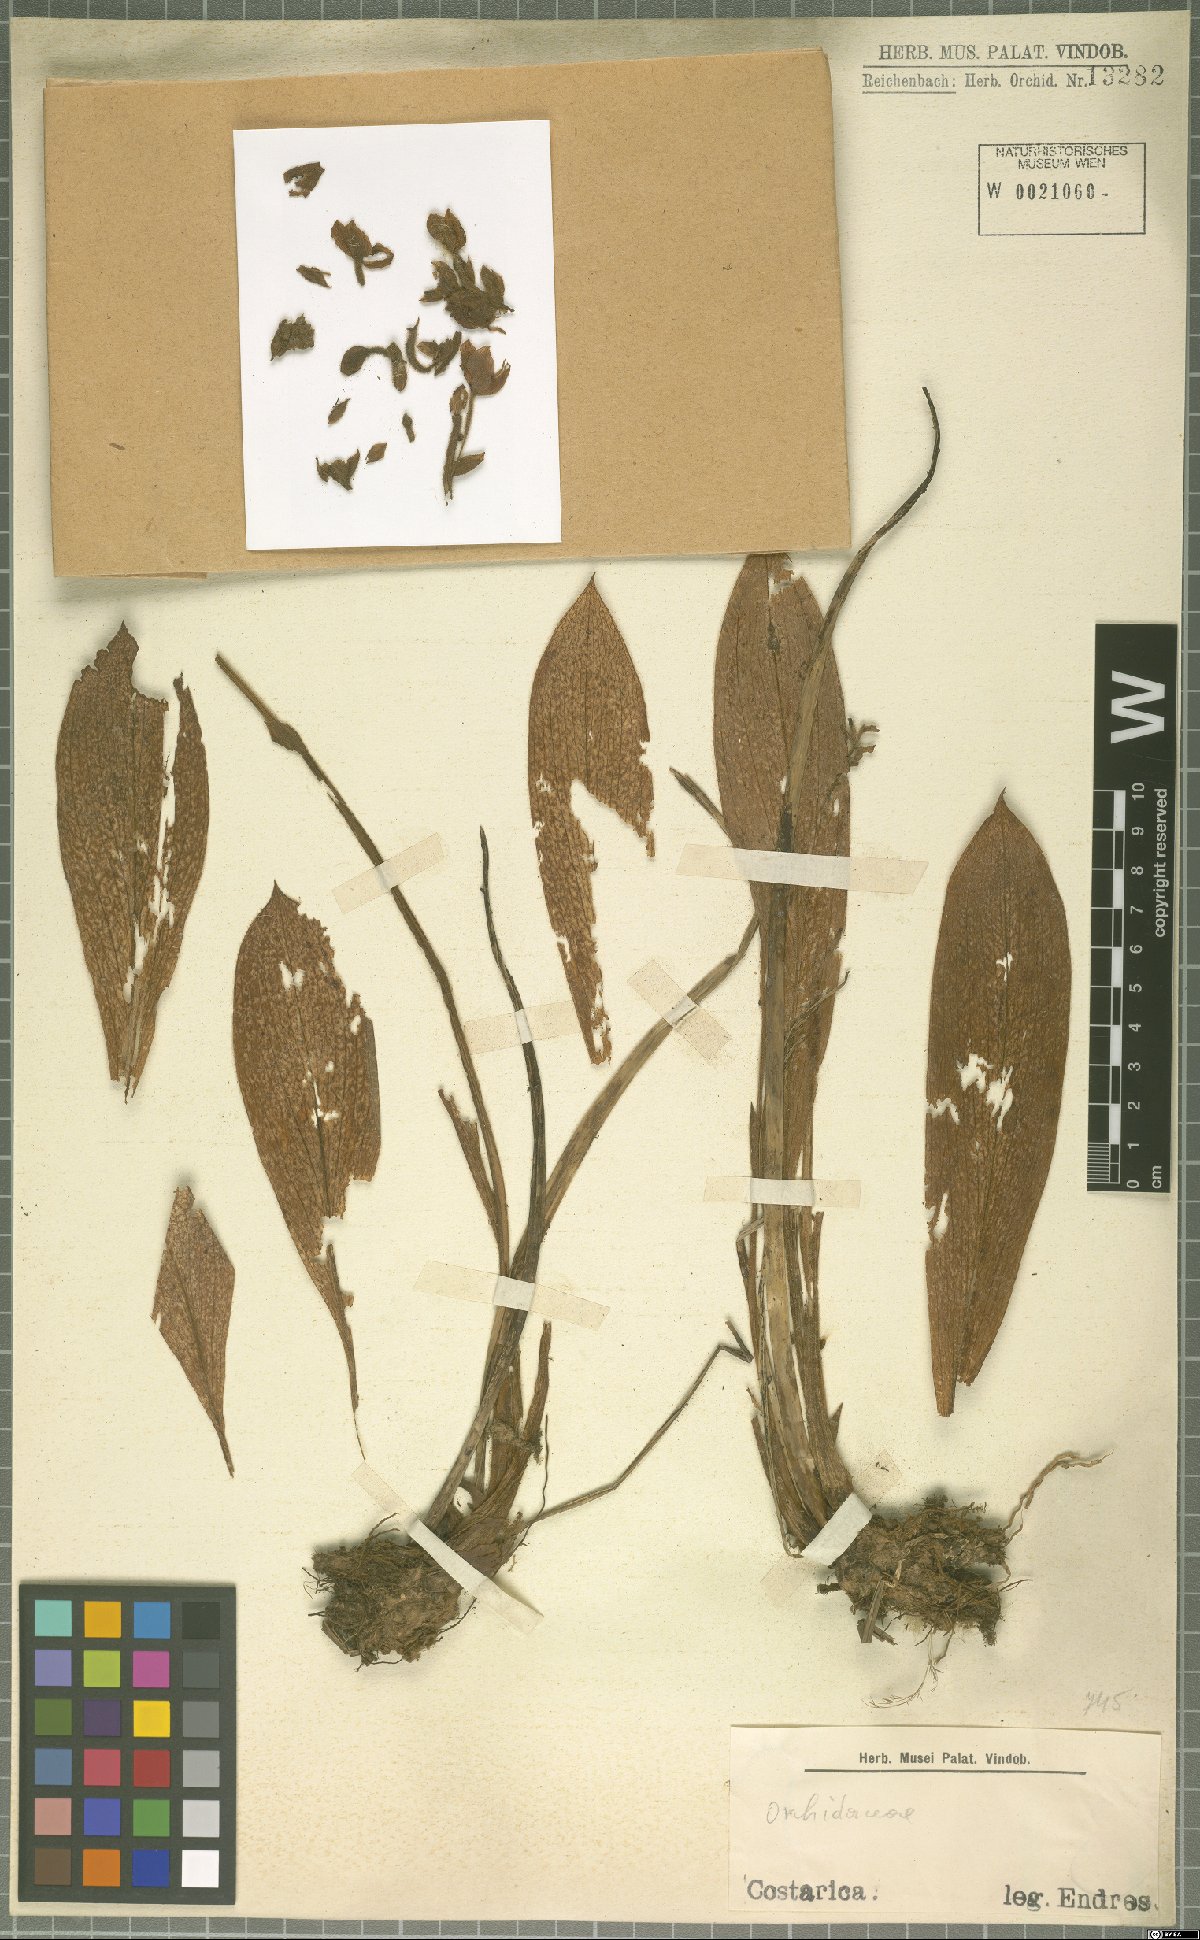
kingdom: Plantae
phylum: Tracheophyta
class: Liliopsida
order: Asparagales
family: Orchidaceae
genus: Ponthieva
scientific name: Ponthieva
